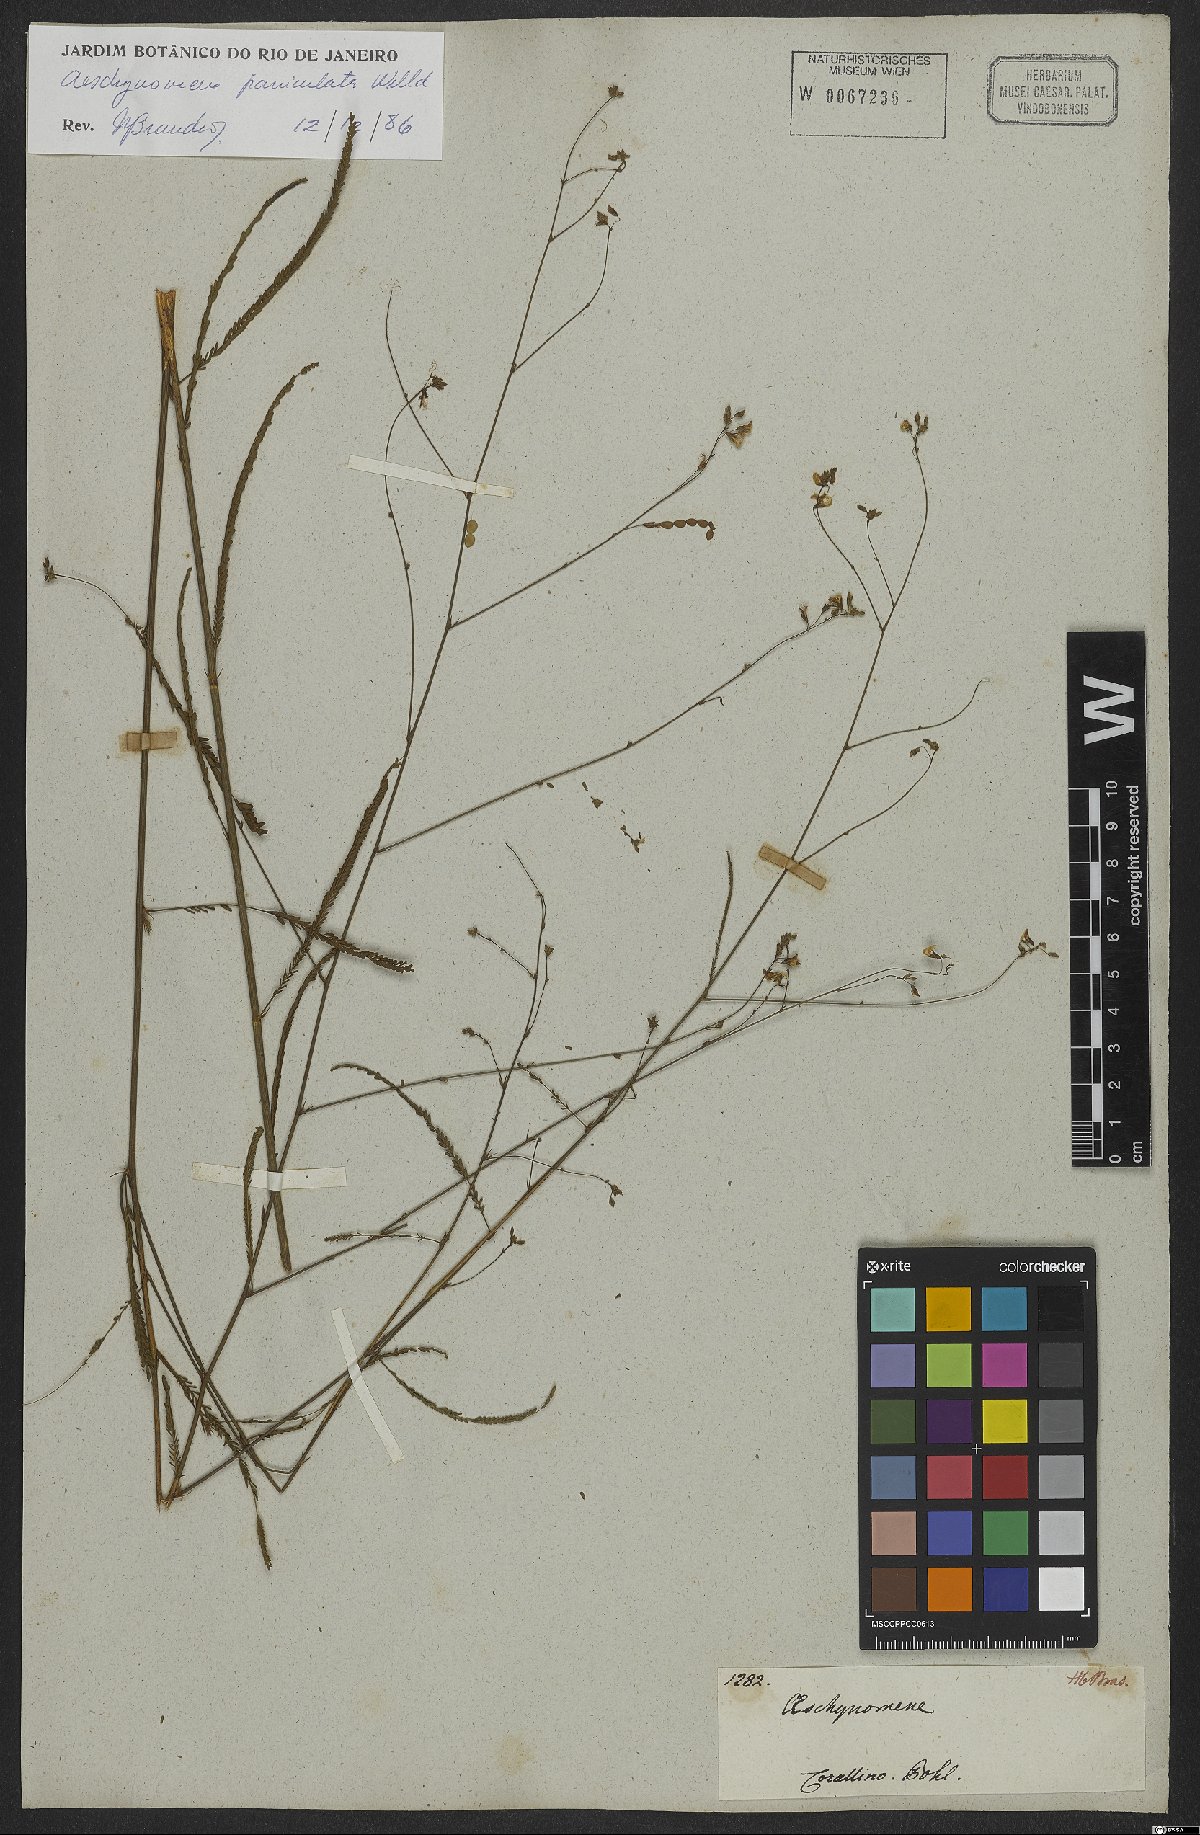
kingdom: Plantae
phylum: Tracheophyta
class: Magnoliopsida
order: Fabales
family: Fabaceae
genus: Ctenodon
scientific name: Ctenodon paniculatus
